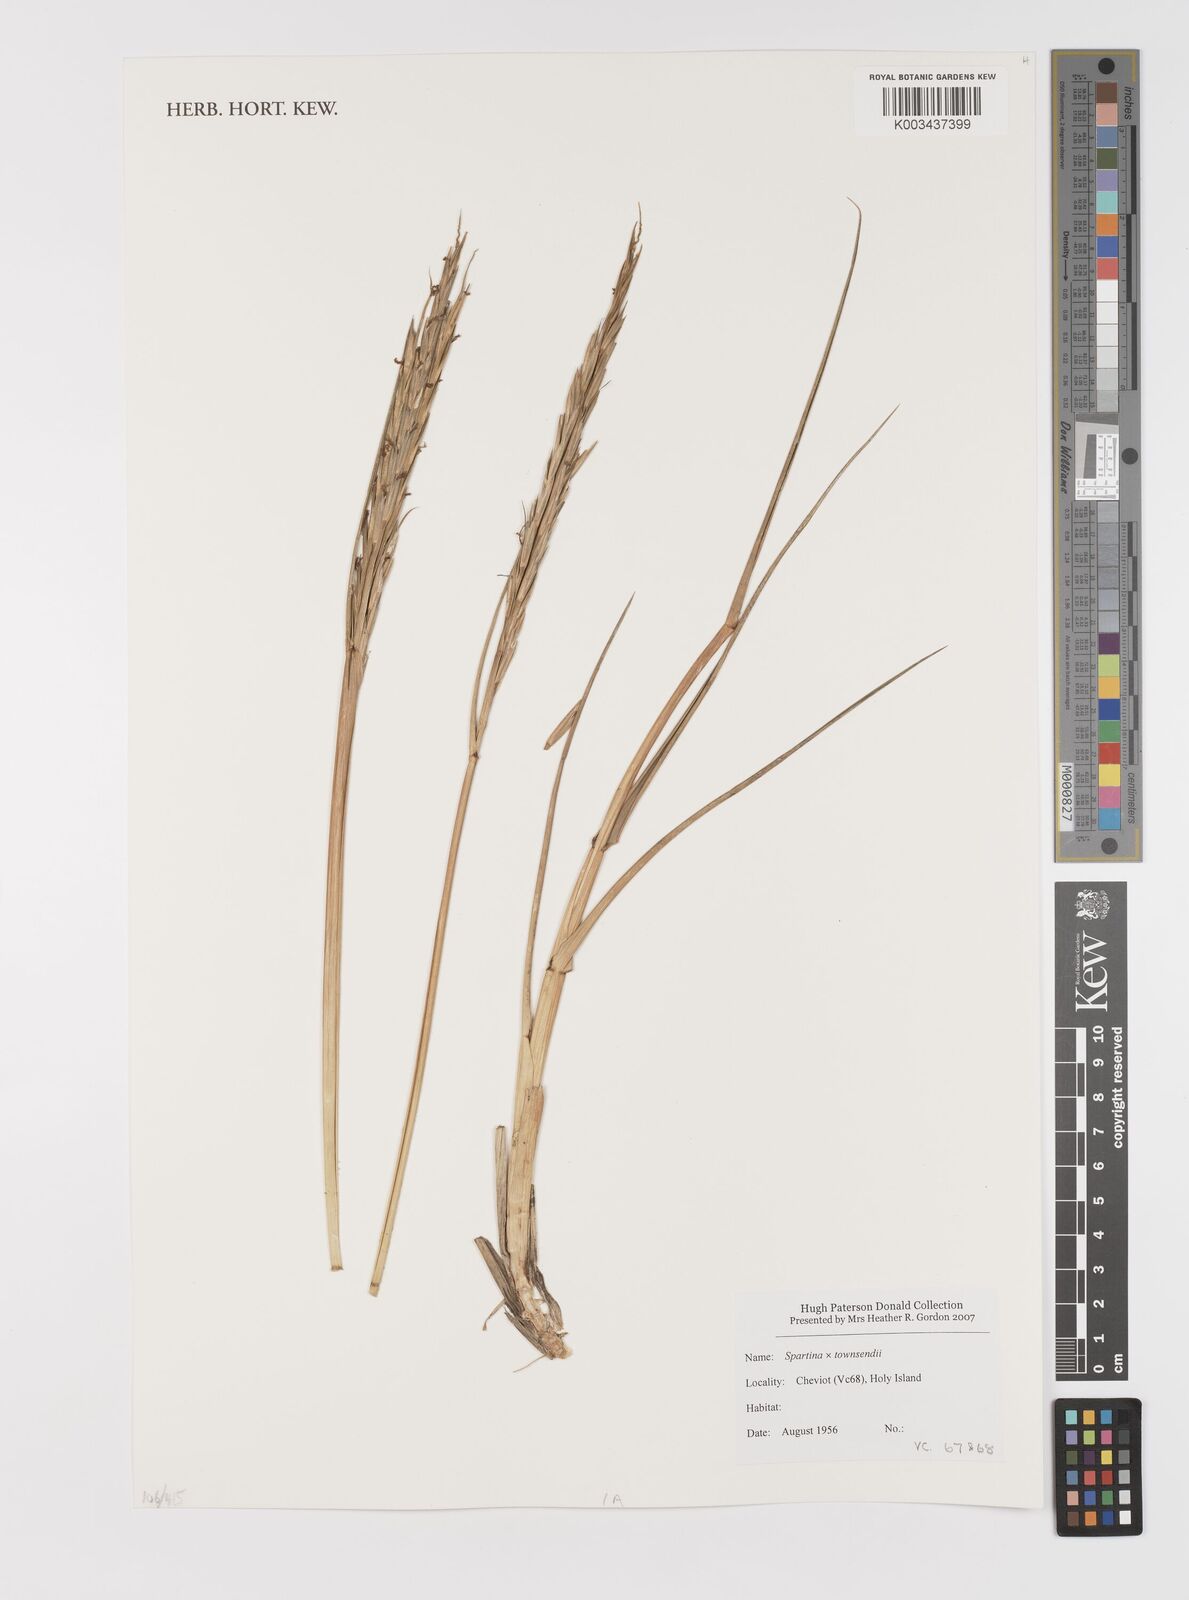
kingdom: Plantae
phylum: Tracheophyta
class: Liliopsida
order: Poales
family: Poaceae
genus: Sporobolus
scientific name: Sporobolus townsendii
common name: Townsend's cordgrass
